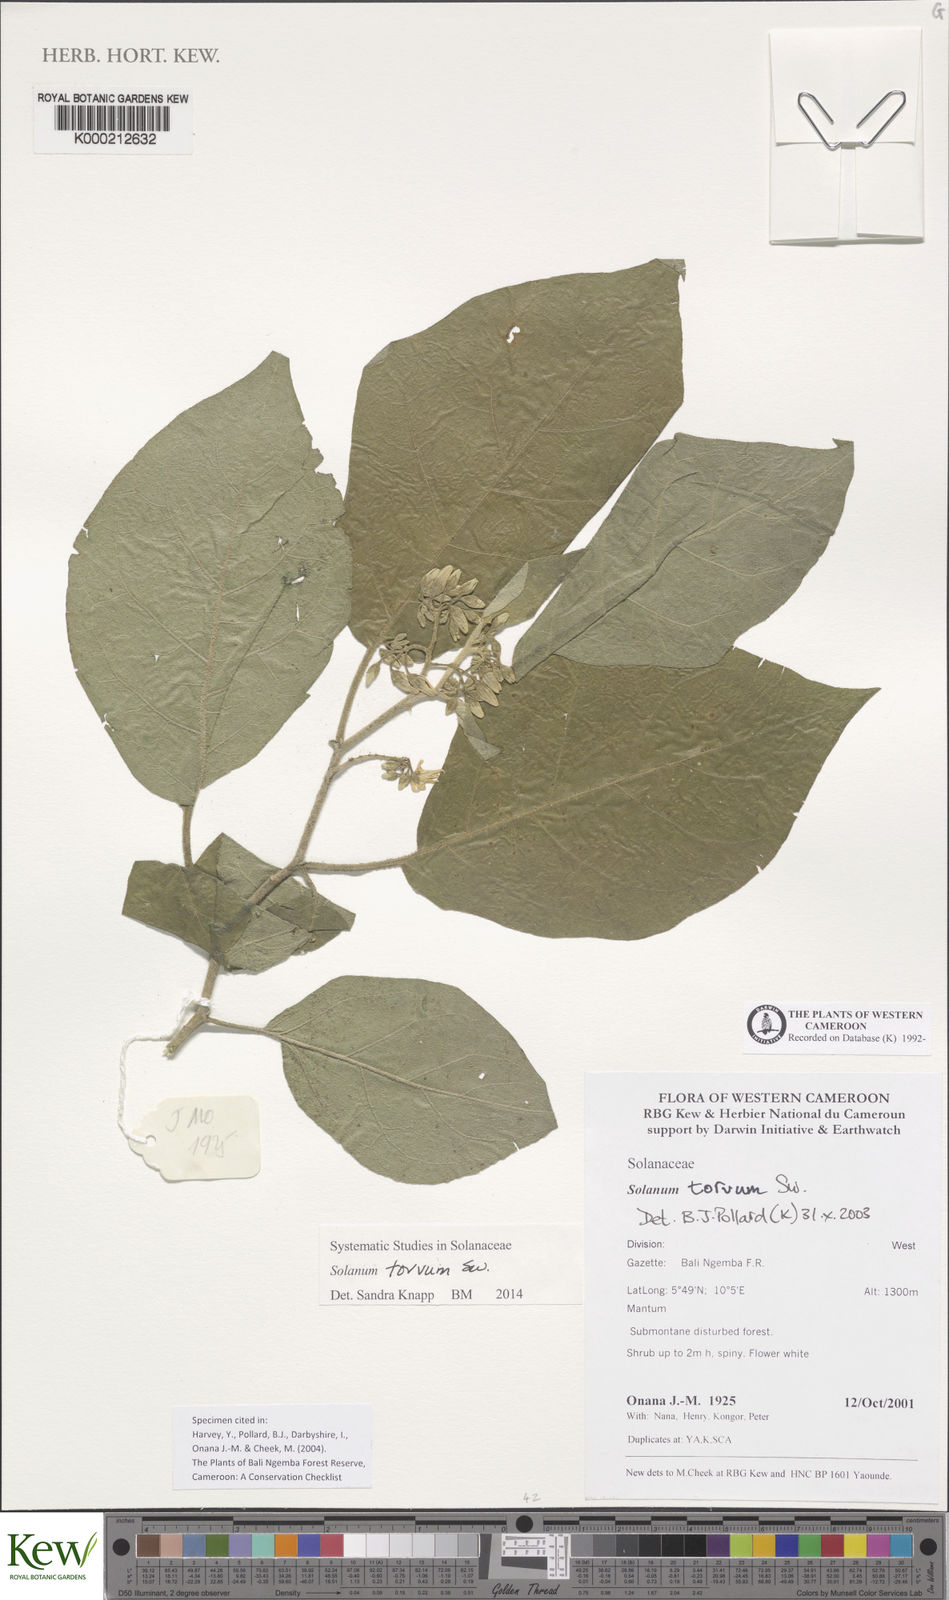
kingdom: Plantae
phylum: Tracheophyta
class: Magnoliopsida
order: Solanales
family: Solanaceae
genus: Solanum
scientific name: Solanum torvum
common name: Turkey berry
